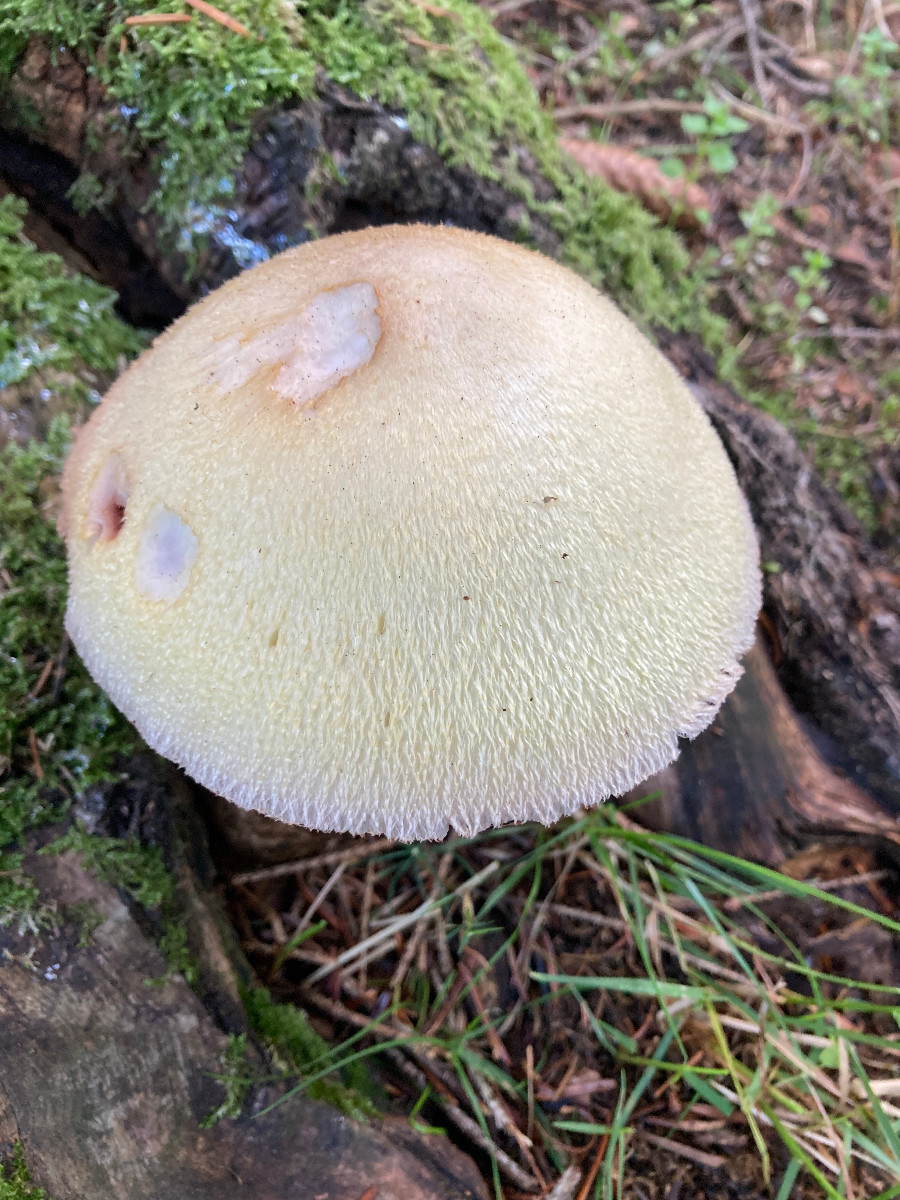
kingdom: Fungi
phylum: Basidiomycota
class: Agaricomycetes
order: Agaricales
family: Pluteaceae
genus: Volvariella
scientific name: Volvariella bombycina
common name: silkehåret posesvamp
